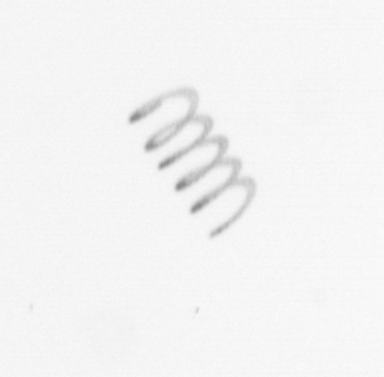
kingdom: Chromista
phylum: Ochrophyta
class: Bacillariophyceae
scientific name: Bacillariophyceae
